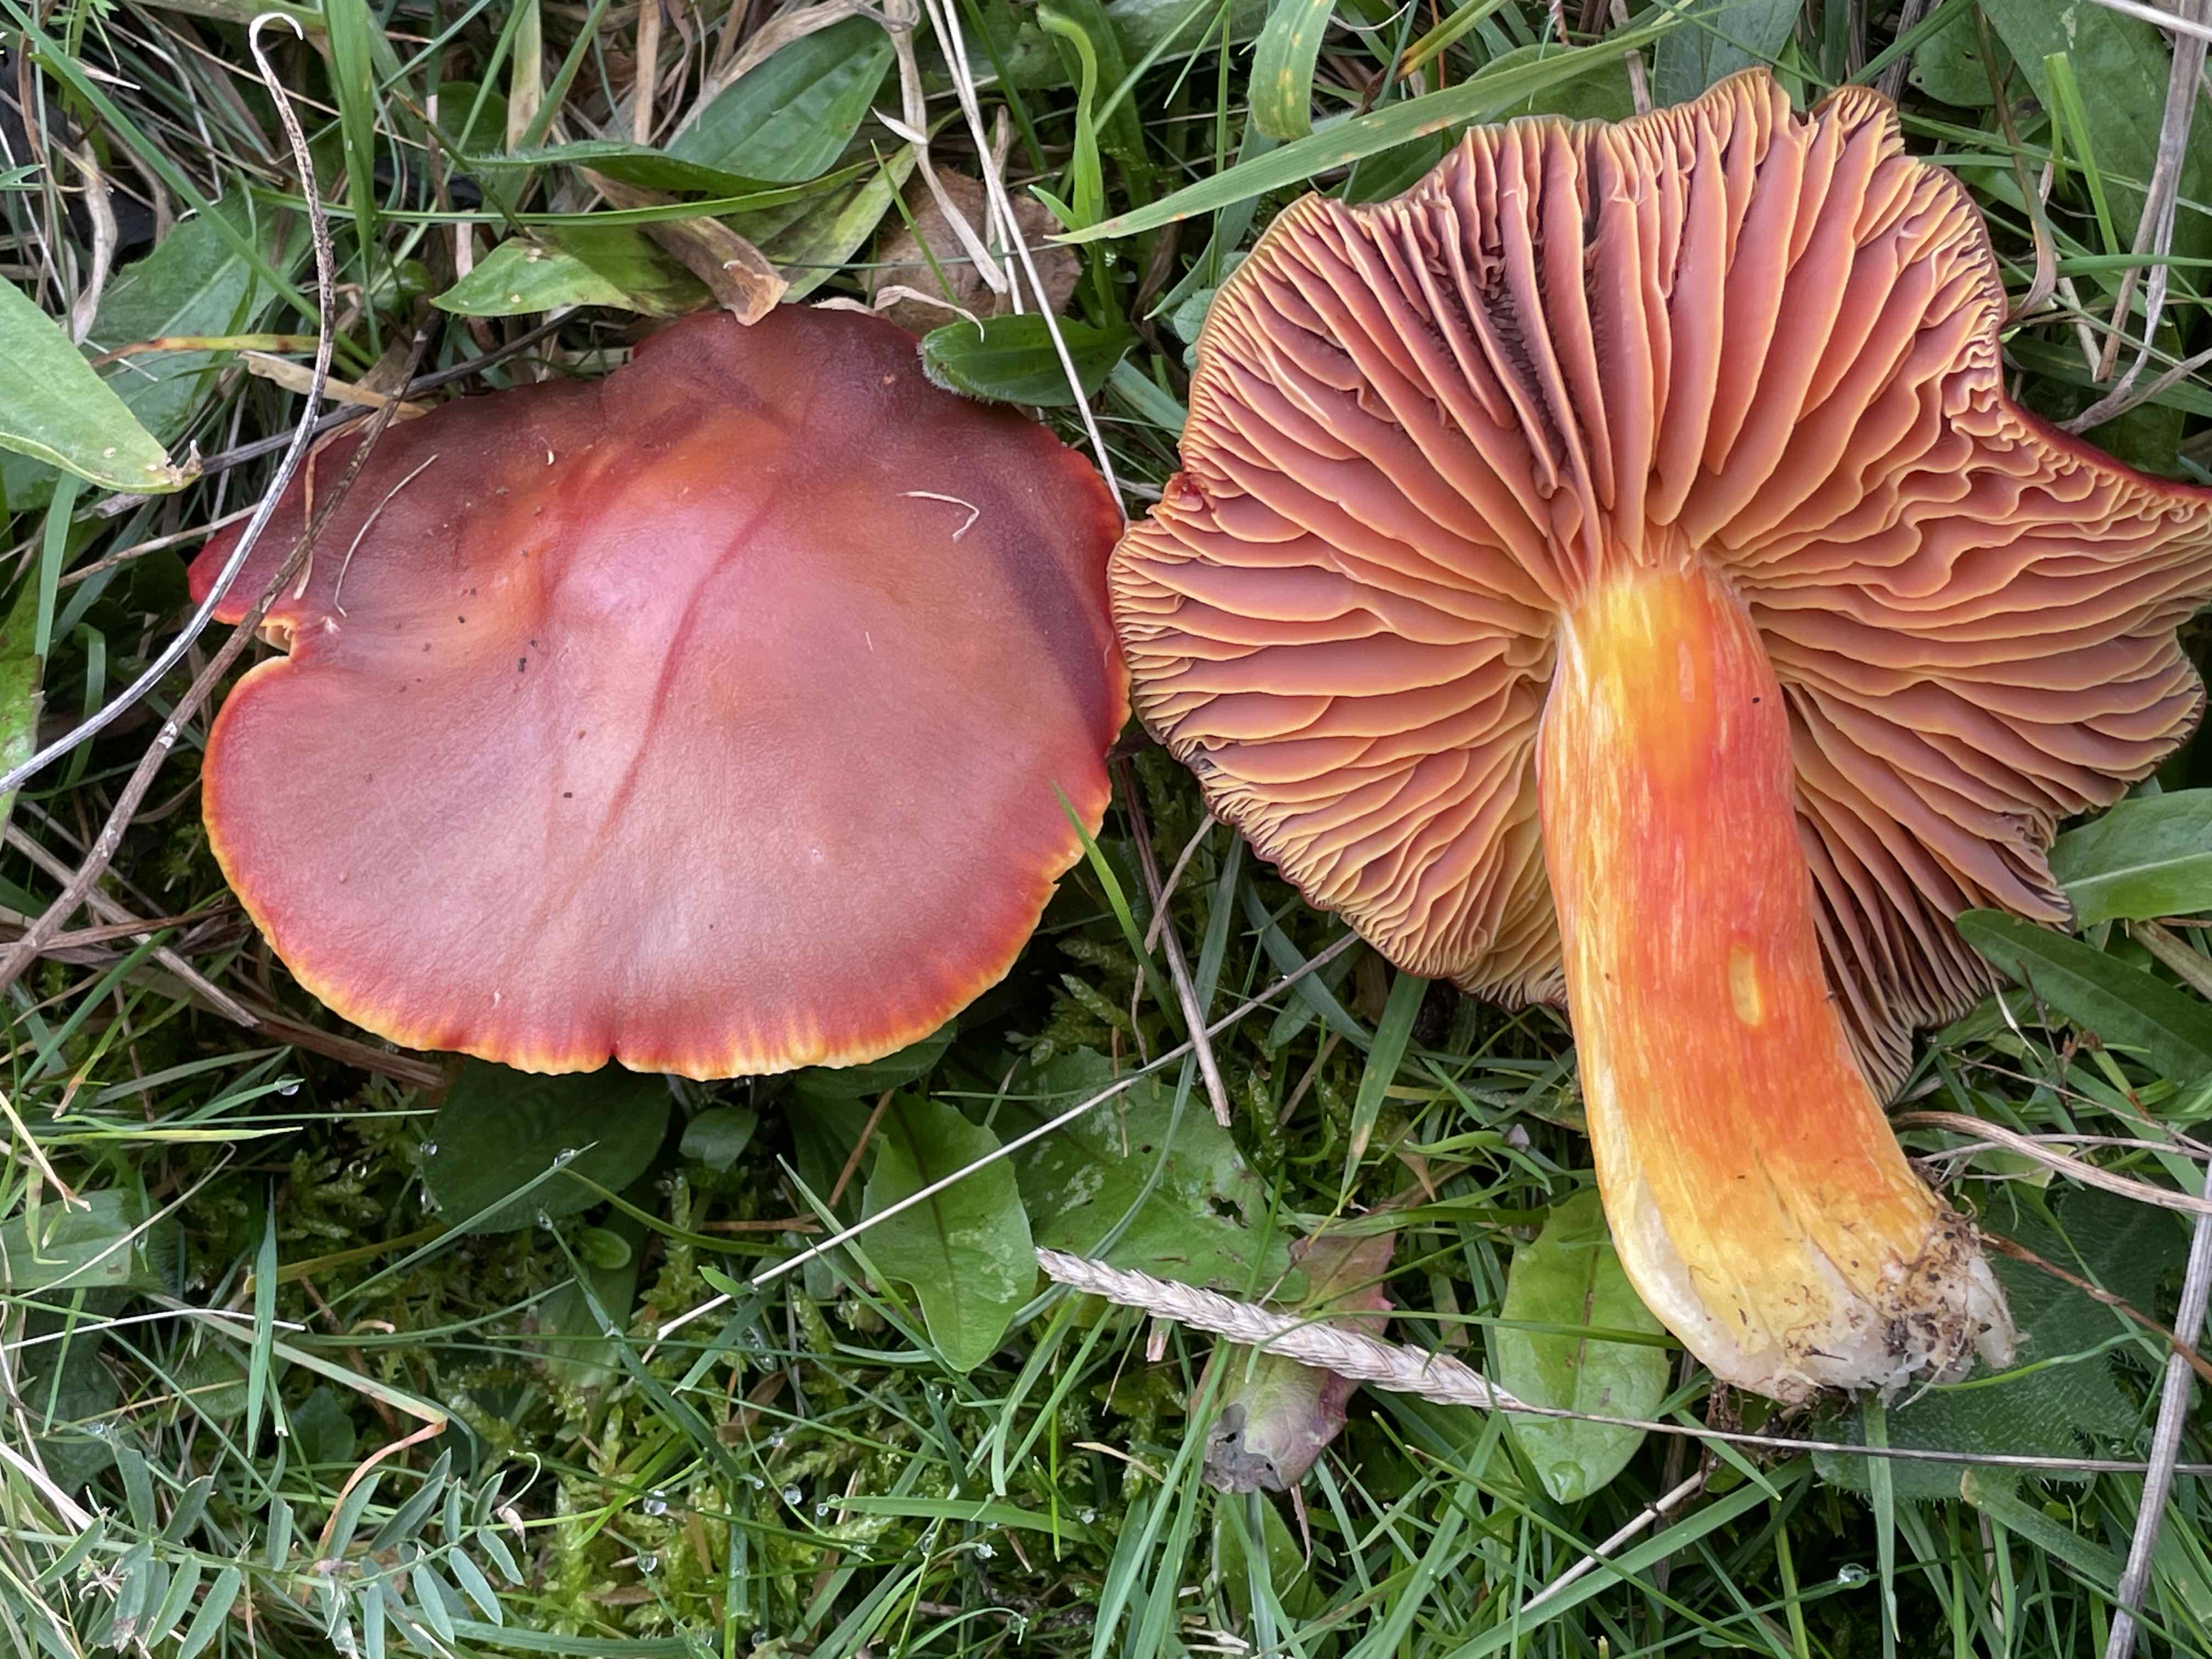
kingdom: Fungi
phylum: Basidiomycota
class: Agaricomycetes
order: Agaricales
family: Hygrophoraceae
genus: Hygrocybe
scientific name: Hygrocybe punicea
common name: skarlagen-vokshat
